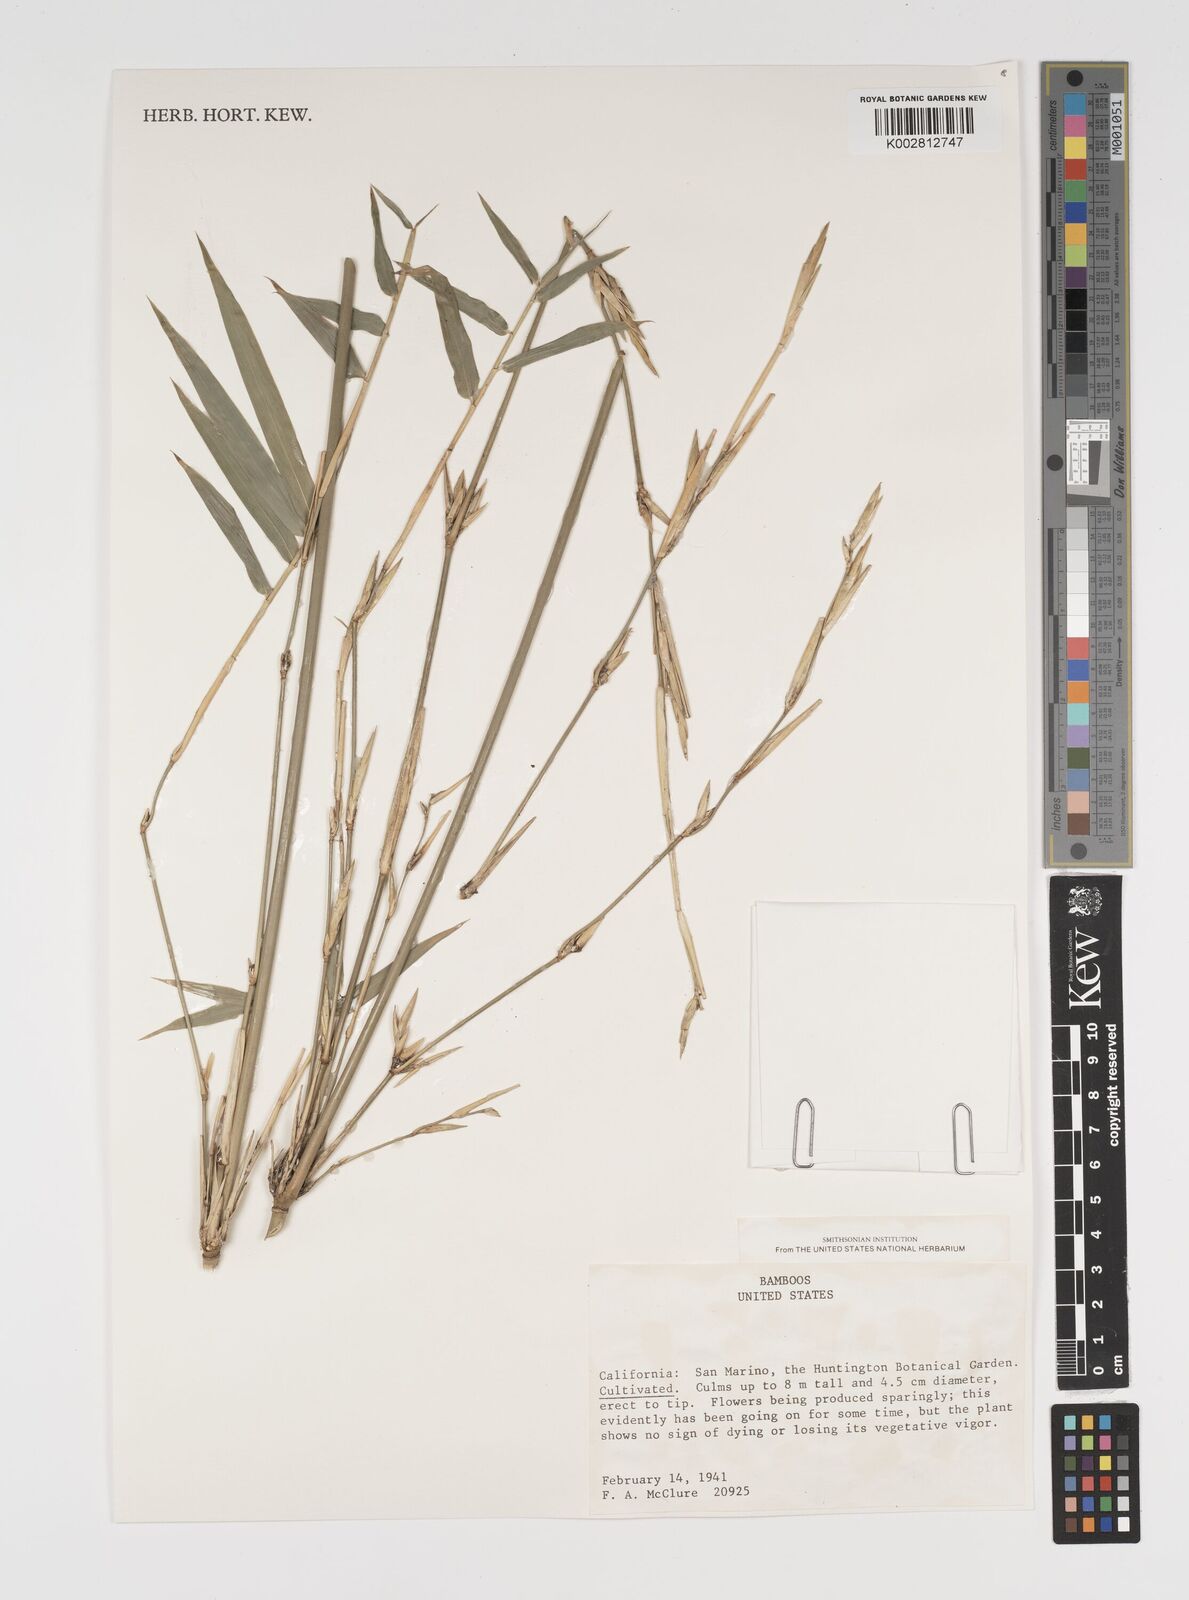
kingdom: Plantae
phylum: Tracheophyta
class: Liliopsida
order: Poales
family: Poaceae
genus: Arundinaria
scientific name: Arundinaria
